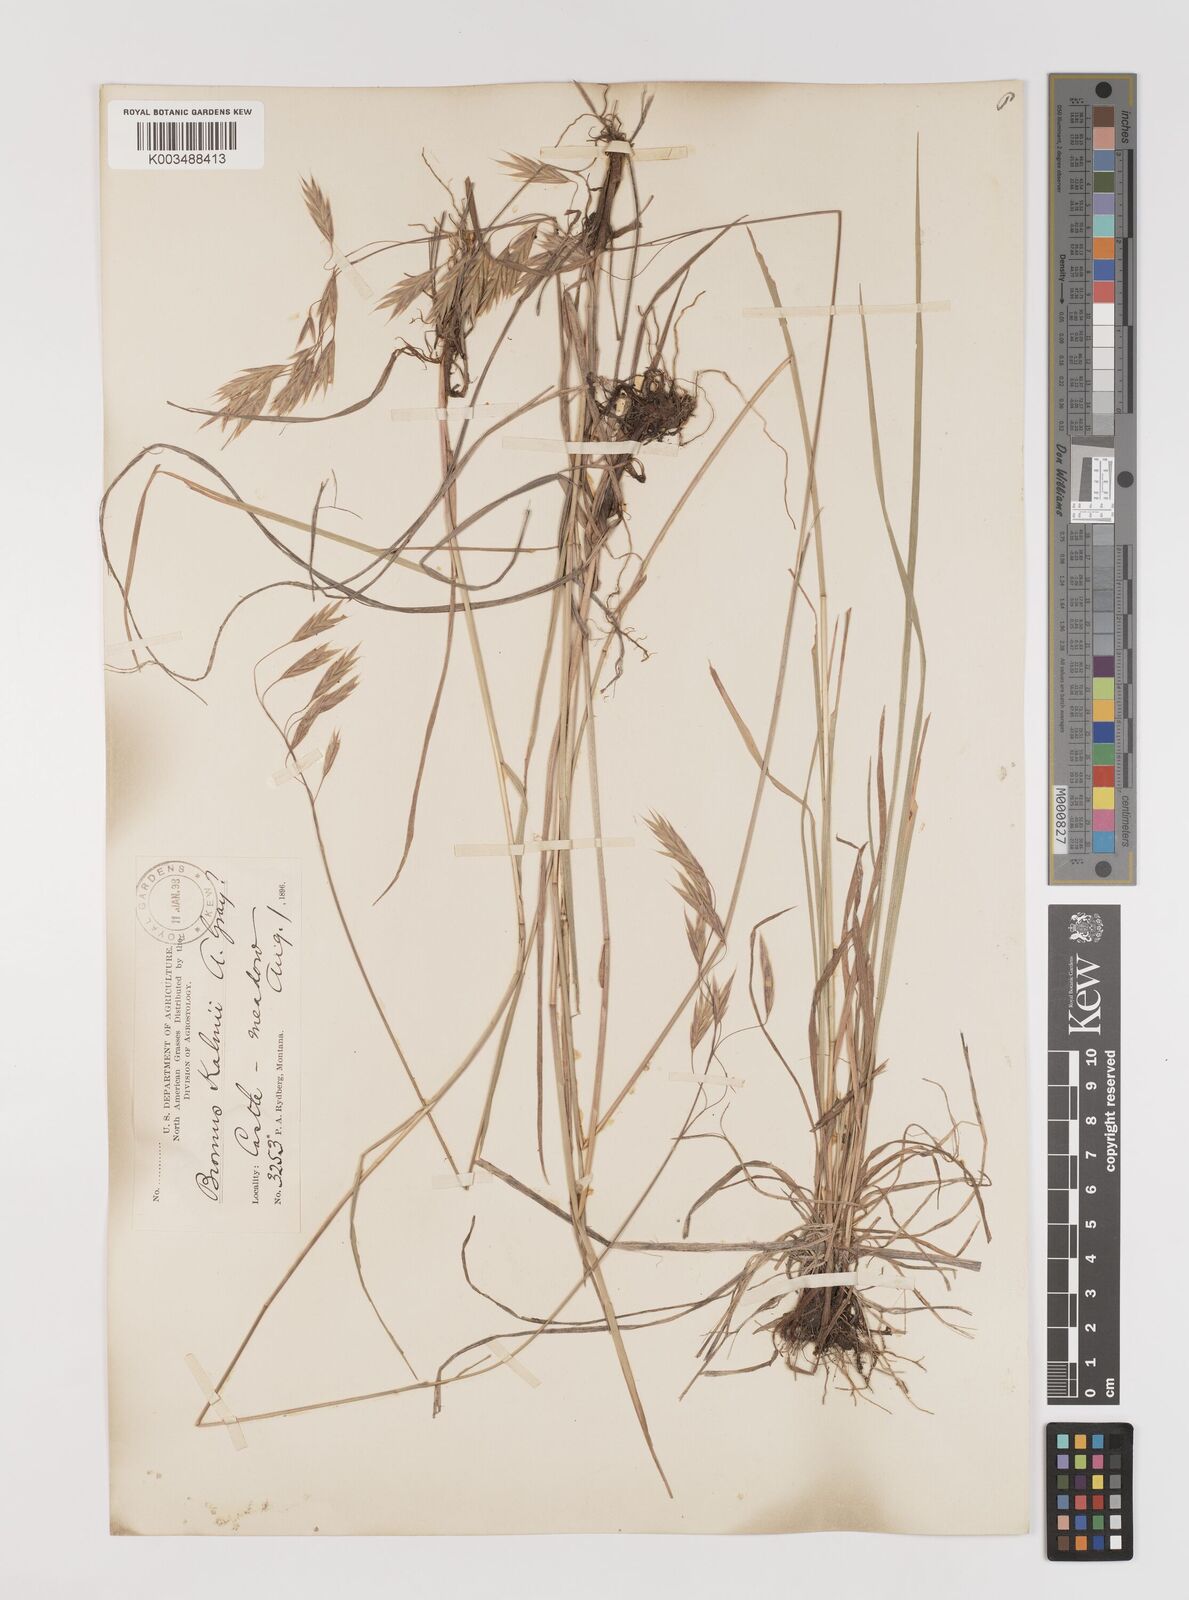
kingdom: Plantae
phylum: Tracheophyta
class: Liliopsida
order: Poales
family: Poaceae
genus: Bromus
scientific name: Bromus ciliatus
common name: Fringe brome
